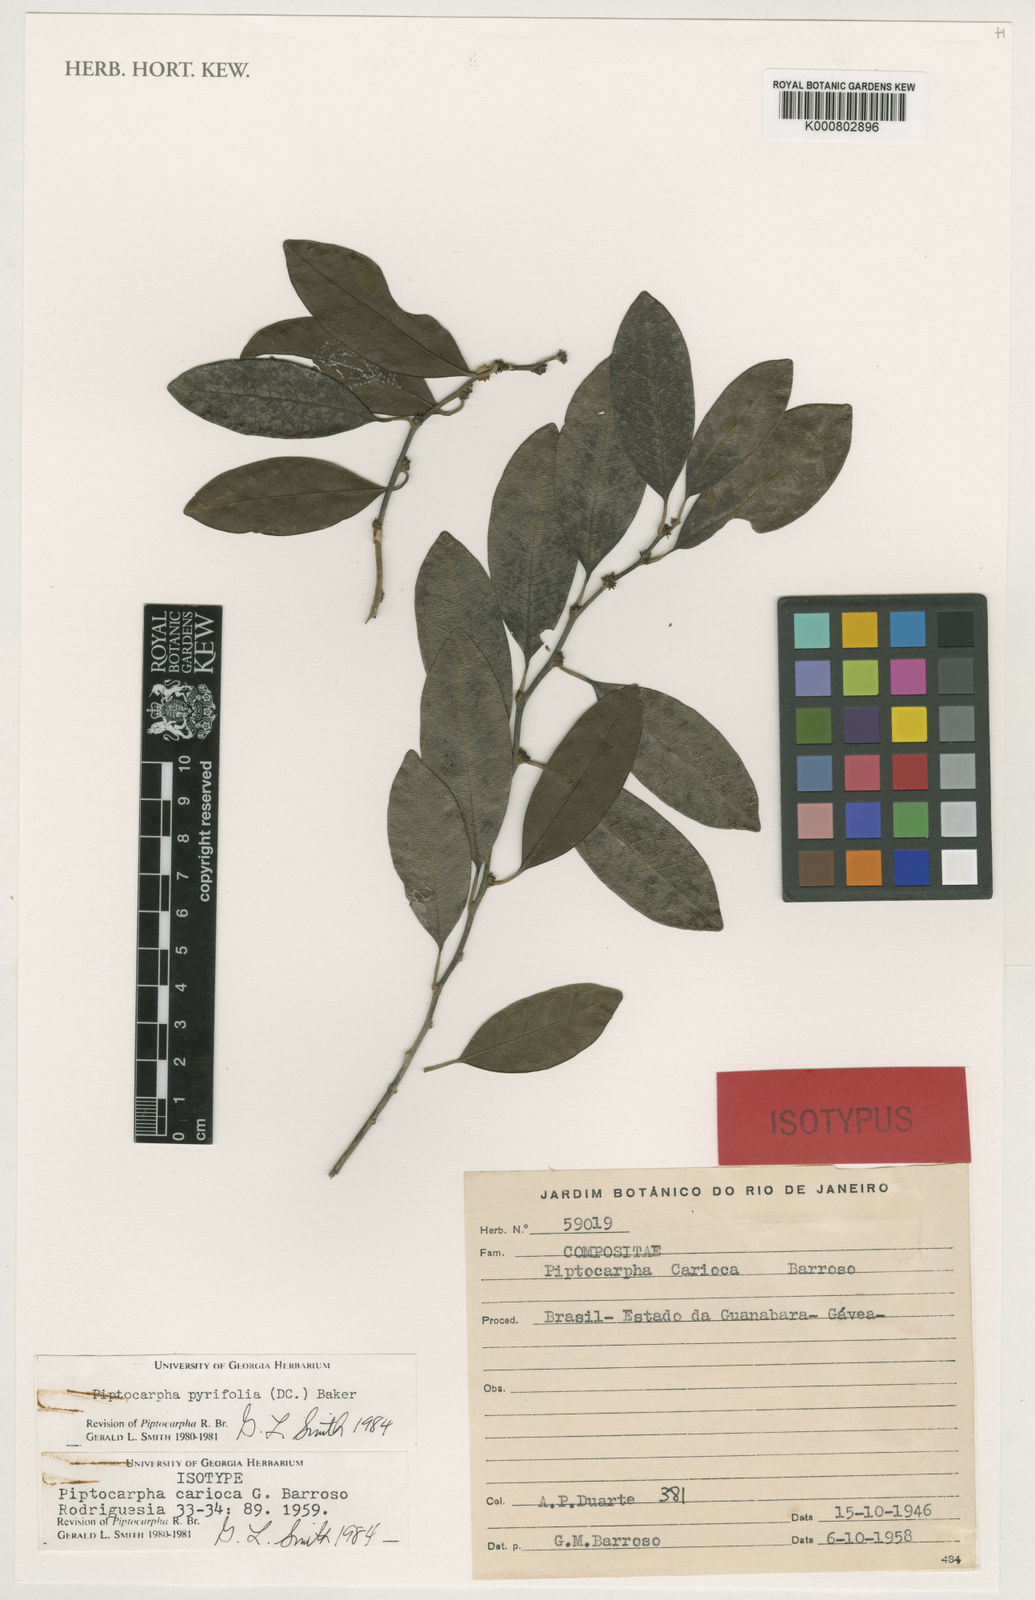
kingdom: Plantae
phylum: Tracheophyta
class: Magnoliopsida
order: Asterales
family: Asteraceae
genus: Piptocarpha
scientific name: Piptocarpha pyrifolia
